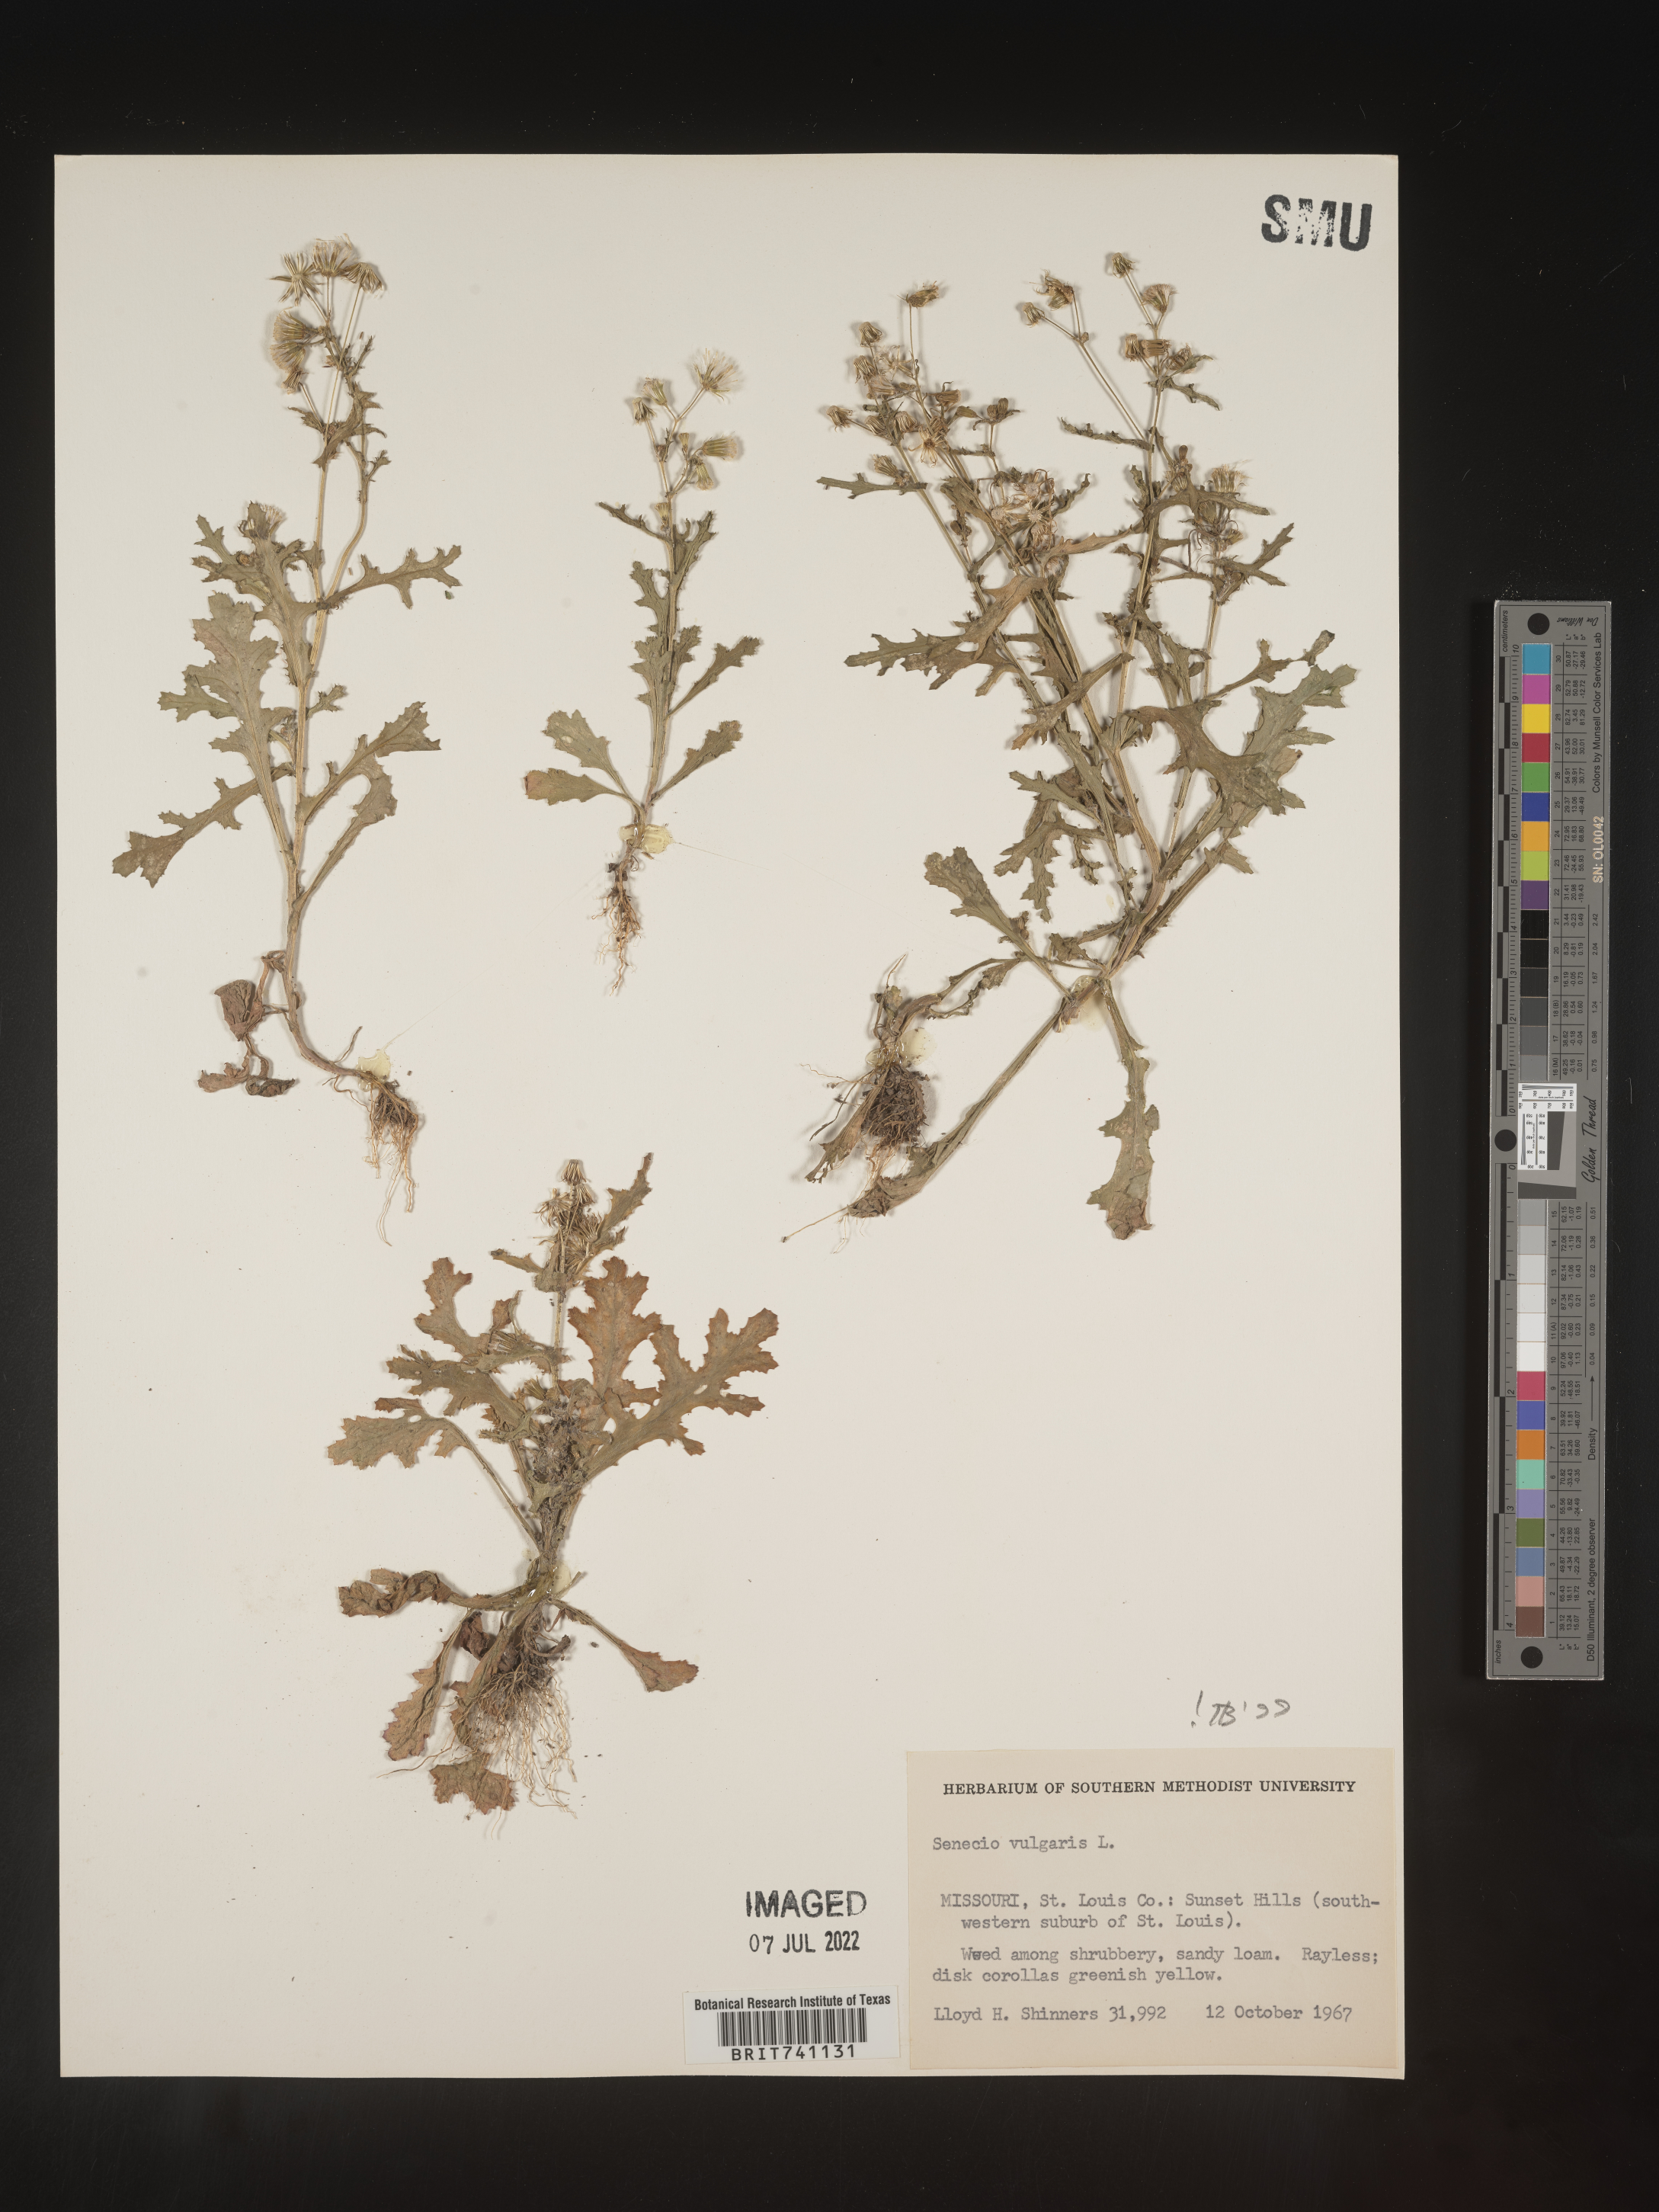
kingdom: Plantae
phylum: Tracheophyta
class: Magnoliopsida
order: Asterales
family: Asteraceae
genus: Senecio
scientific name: Senecio vulgaris
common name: Old-man-in-the-spring
